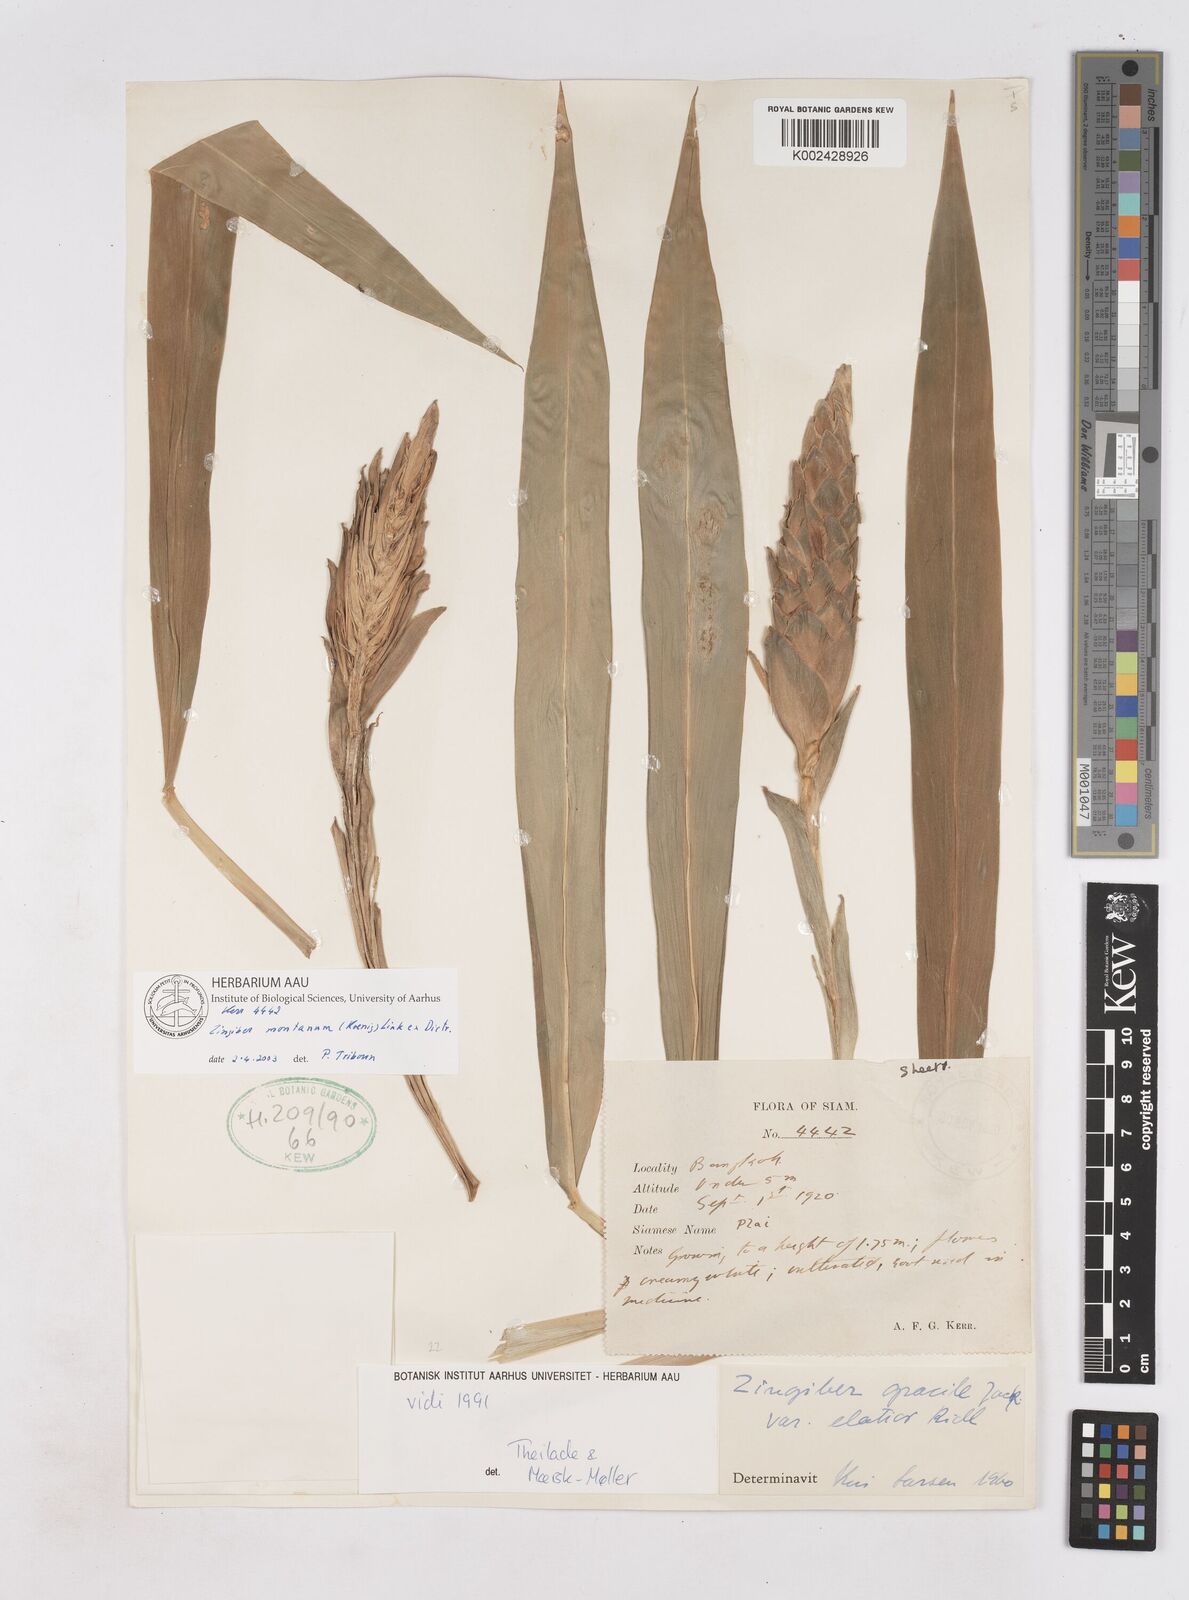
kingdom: Plantae
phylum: Tracheophyta
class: Liliopsida
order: Zingiberales
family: Zingiberaceae
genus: Zingiber
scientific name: Zingiber montanum
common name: Bengal ginger
